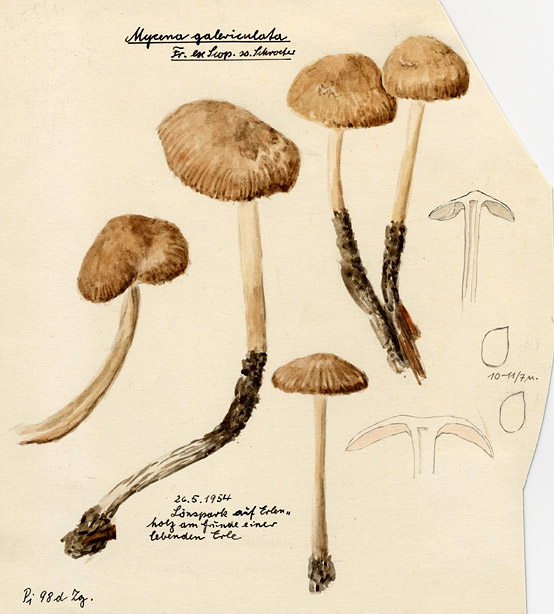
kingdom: Fungi
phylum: Basidiomycota
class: Agaricomycetes
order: Agaricales
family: Mycenaceae
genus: Mycena
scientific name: Mycena galericulata
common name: Bonnet mycena
